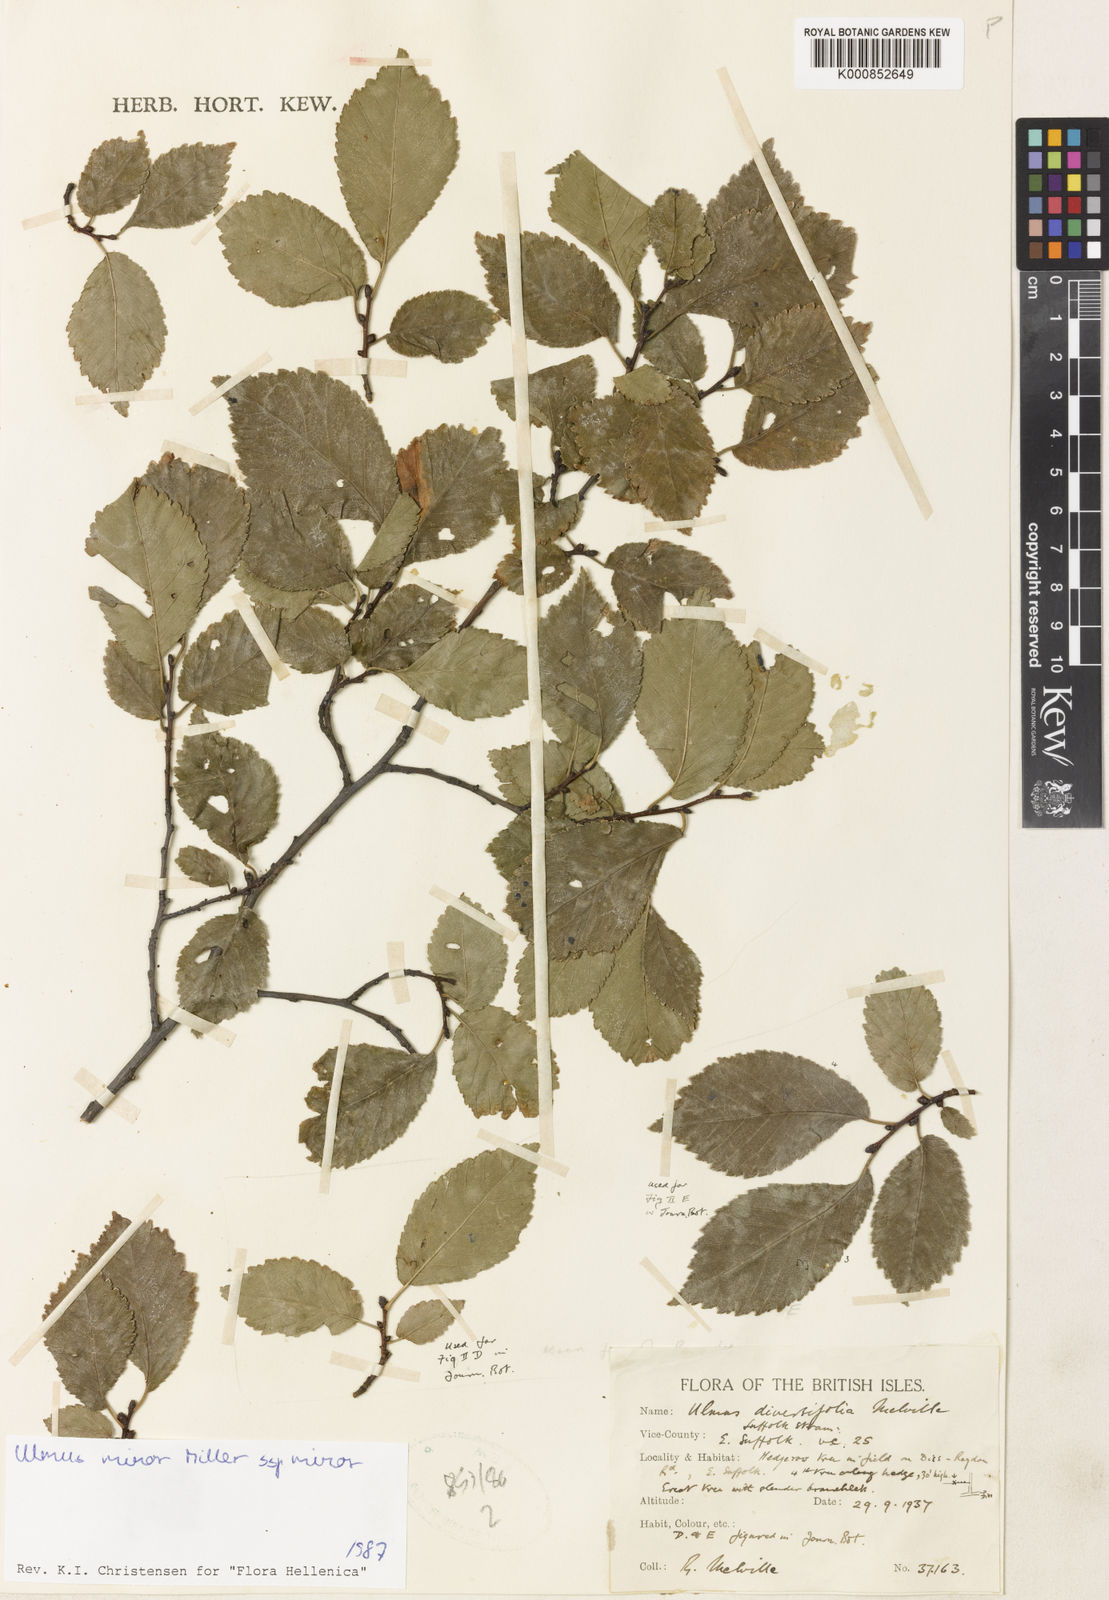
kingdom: Plantae
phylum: Tracheophyta
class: Magnoliopsida
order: Rosales
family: Ulmaceae
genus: Ulmus
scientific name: Ulmus minor
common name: Small-leaved elm
